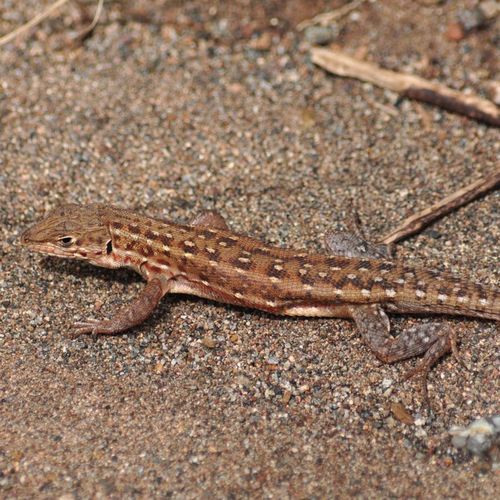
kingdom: Animalia
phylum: Chordata
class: Squamata
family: Lacertidae
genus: Meroles
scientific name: Meroles squamulosus
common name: Common desert lizard
